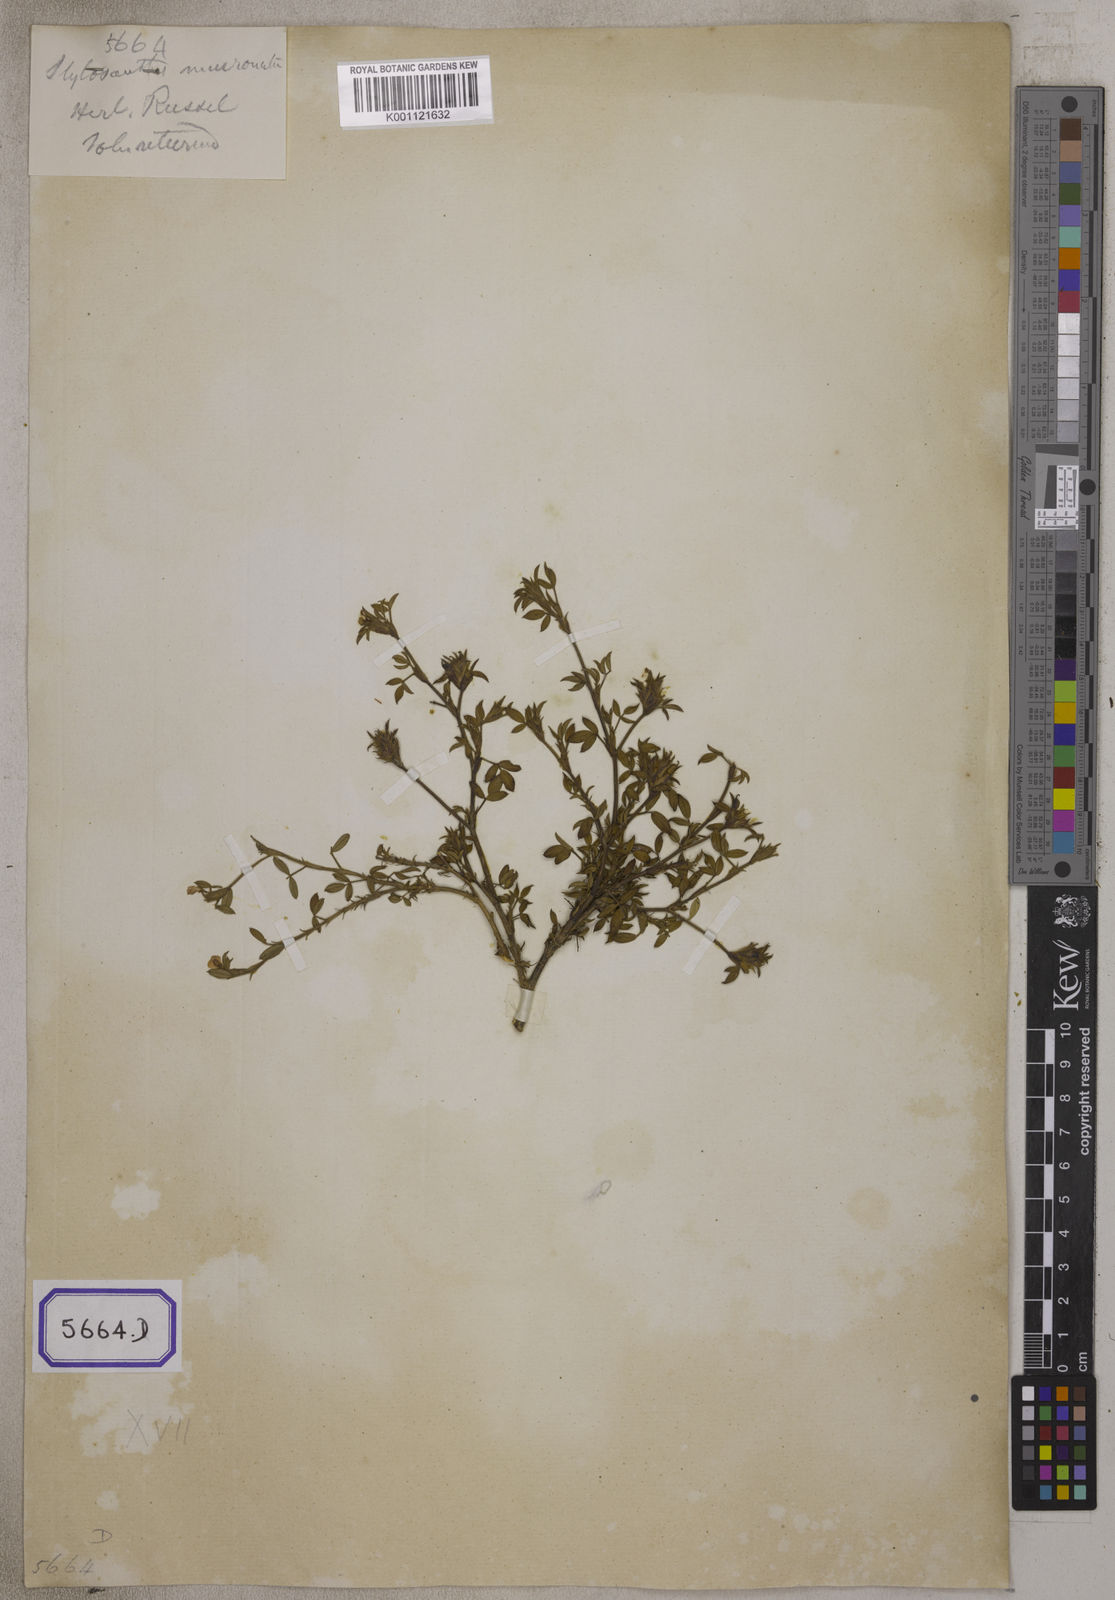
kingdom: Plantae
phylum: Tracheophyta
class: Magnoliopsida
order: Fabales
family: Fabaceae
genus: Stylosanthes
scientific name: Stylosanthes fruticosa
